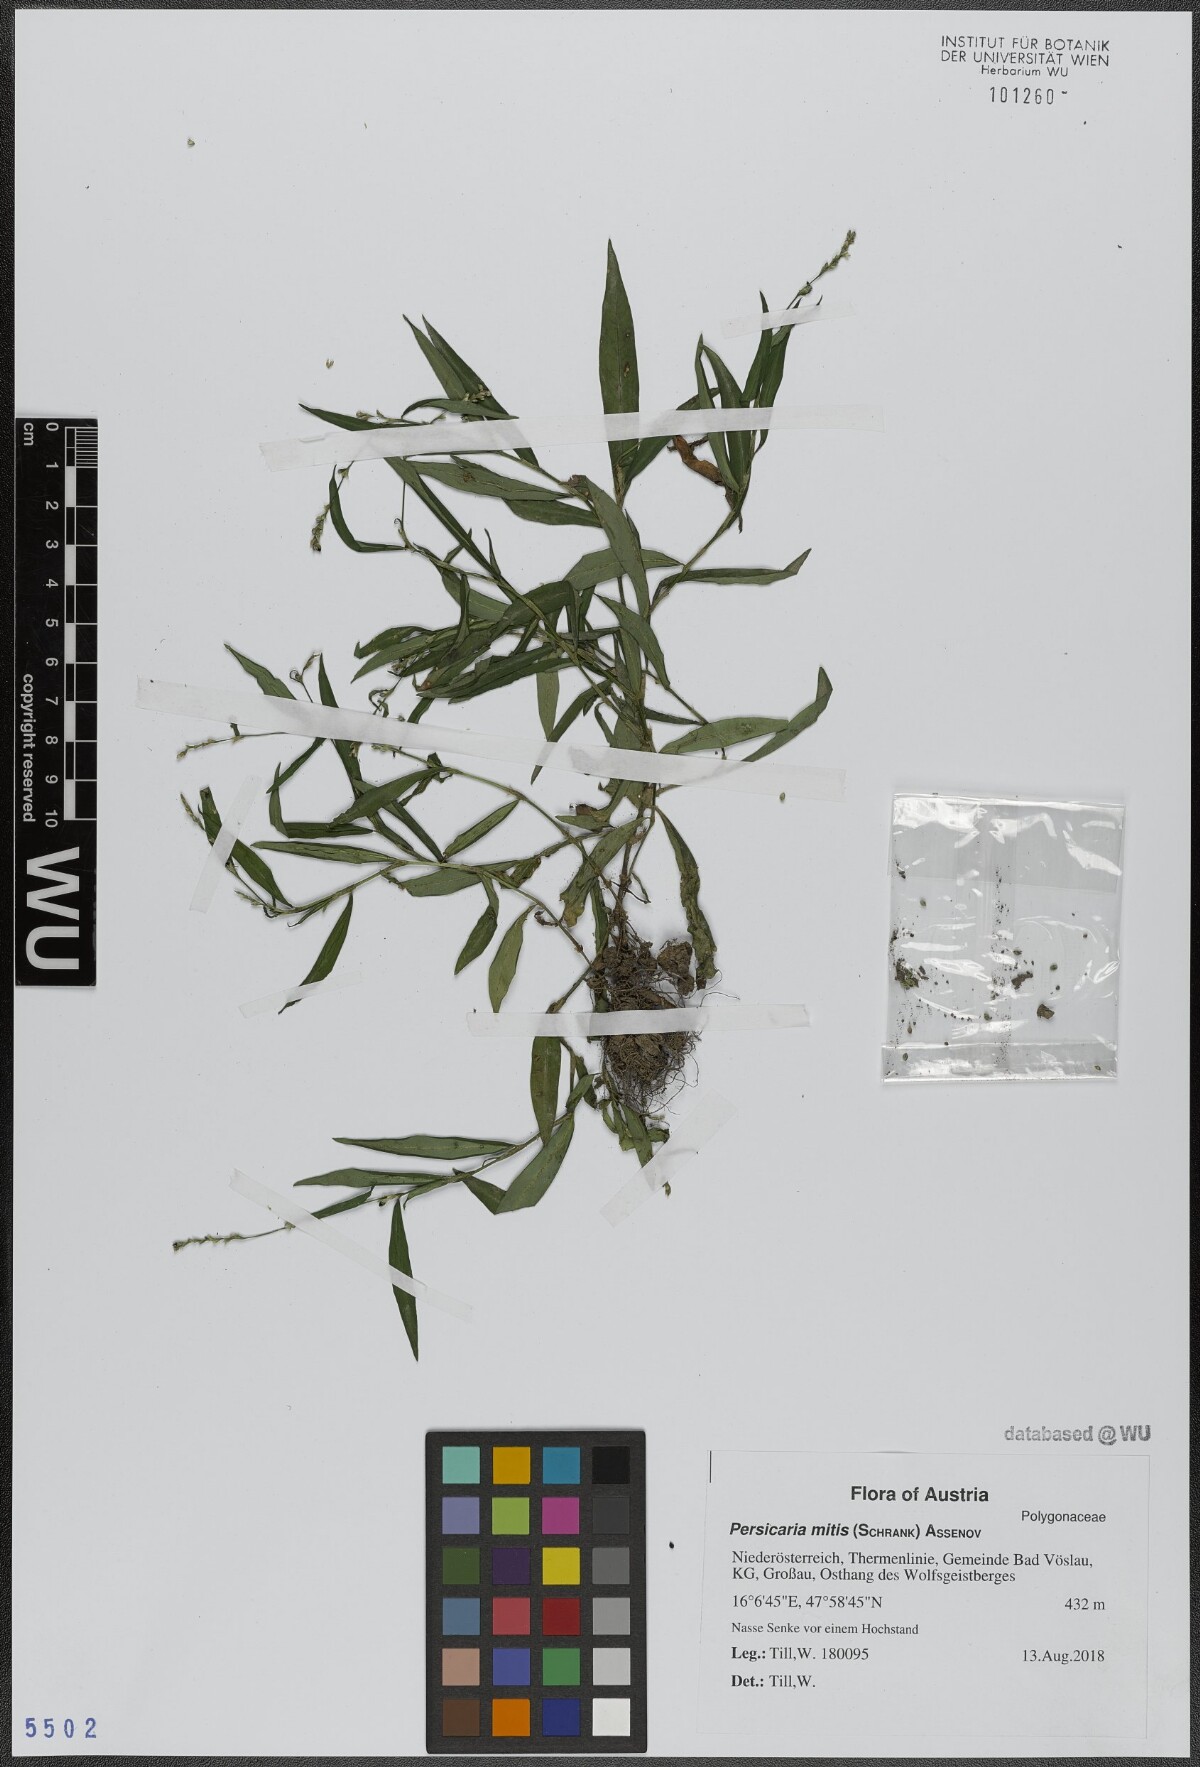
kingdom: Plantae
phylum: Tracheophyta
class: Magnoliopsida
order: Caryophyllales
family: Polygonaceae
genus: Persicaria
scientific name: Persicaria mitis
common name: Tasteless water-pepper
